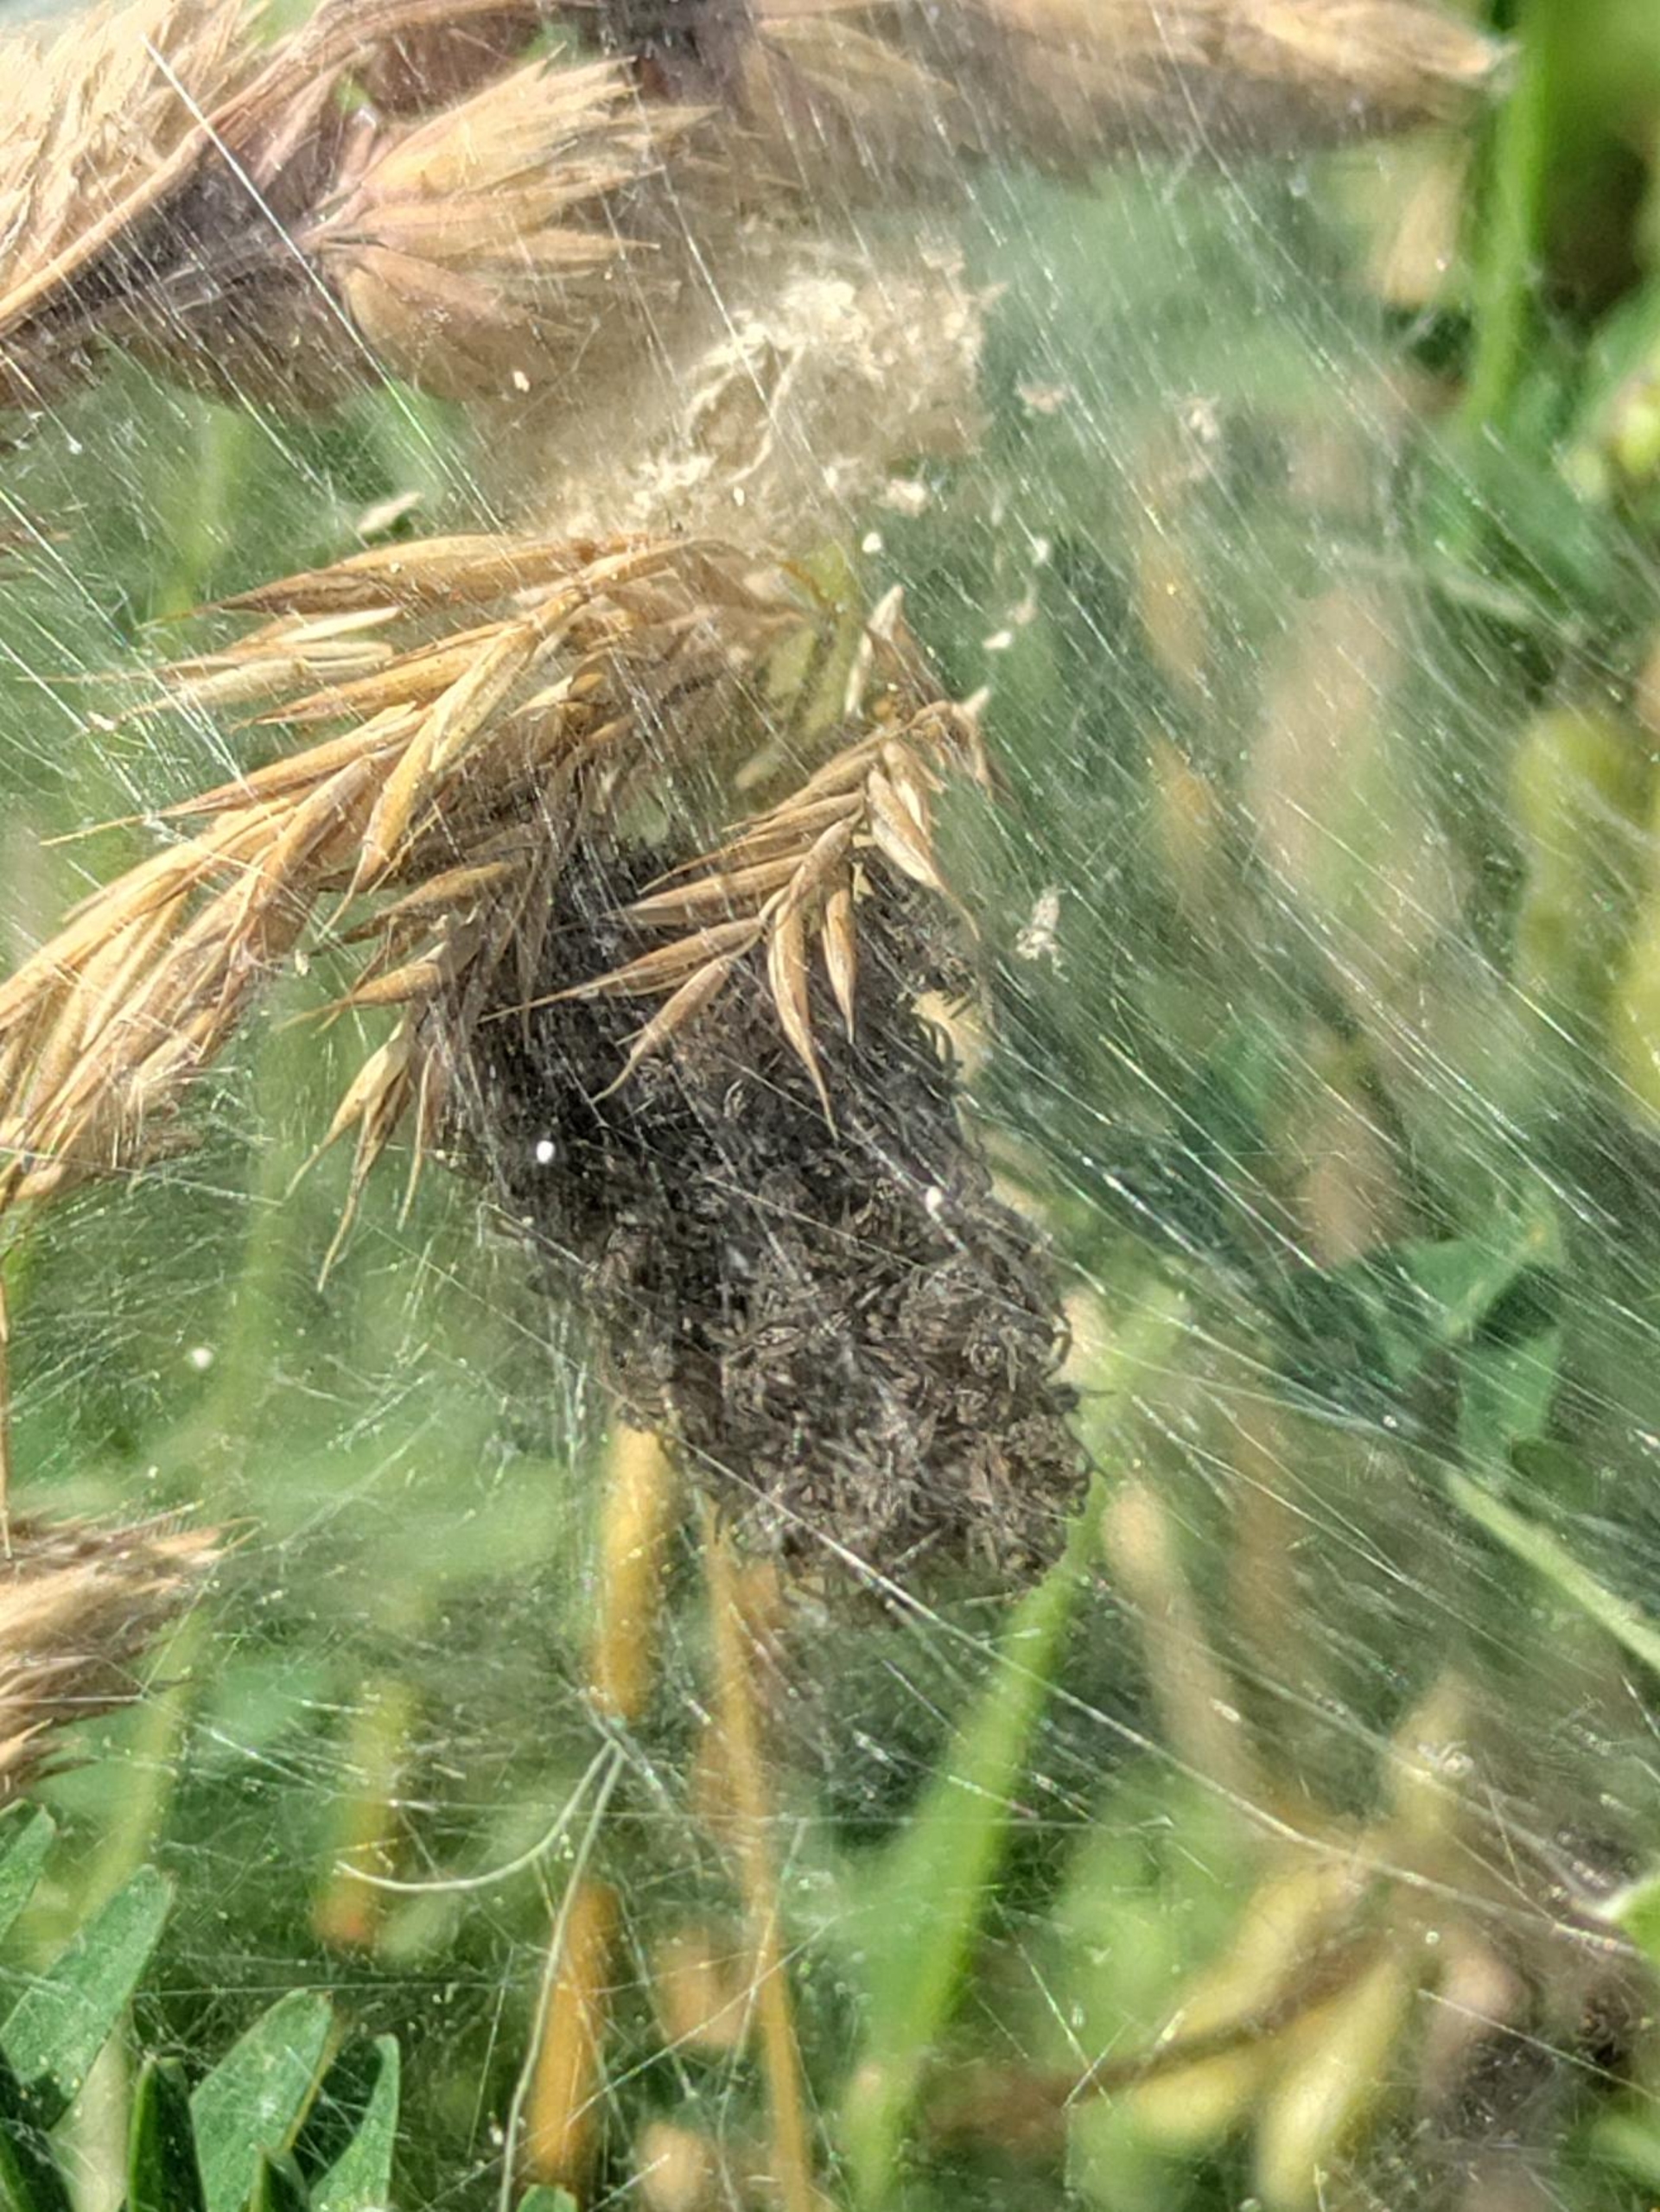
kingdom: Animalia
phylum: Arthropoda
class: Arachnida
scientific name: Arachnida
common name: Spindlere
